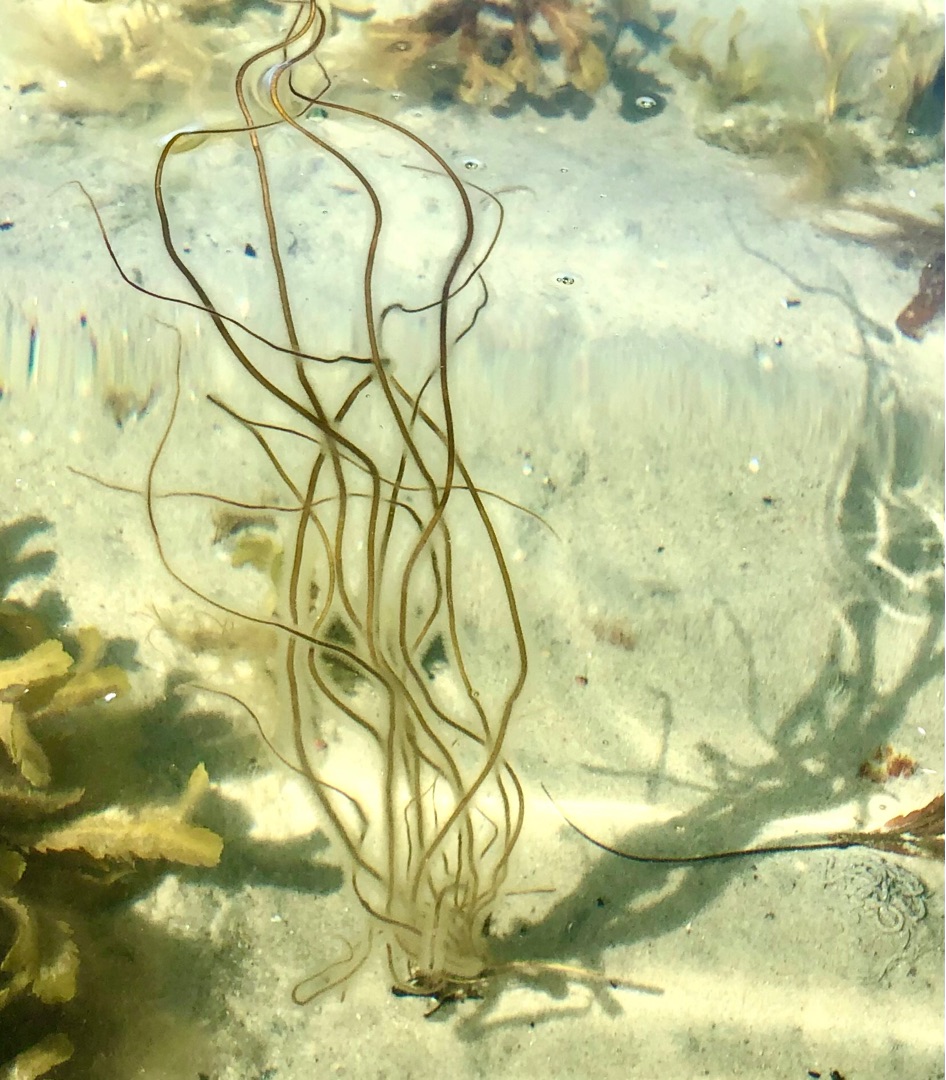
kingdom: Chromista
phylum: Ochrophyta
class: Phaeophyceae
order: Laminariales
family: Chordaceae
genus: Chorda
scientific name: Chorda filum
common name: Strengetang
